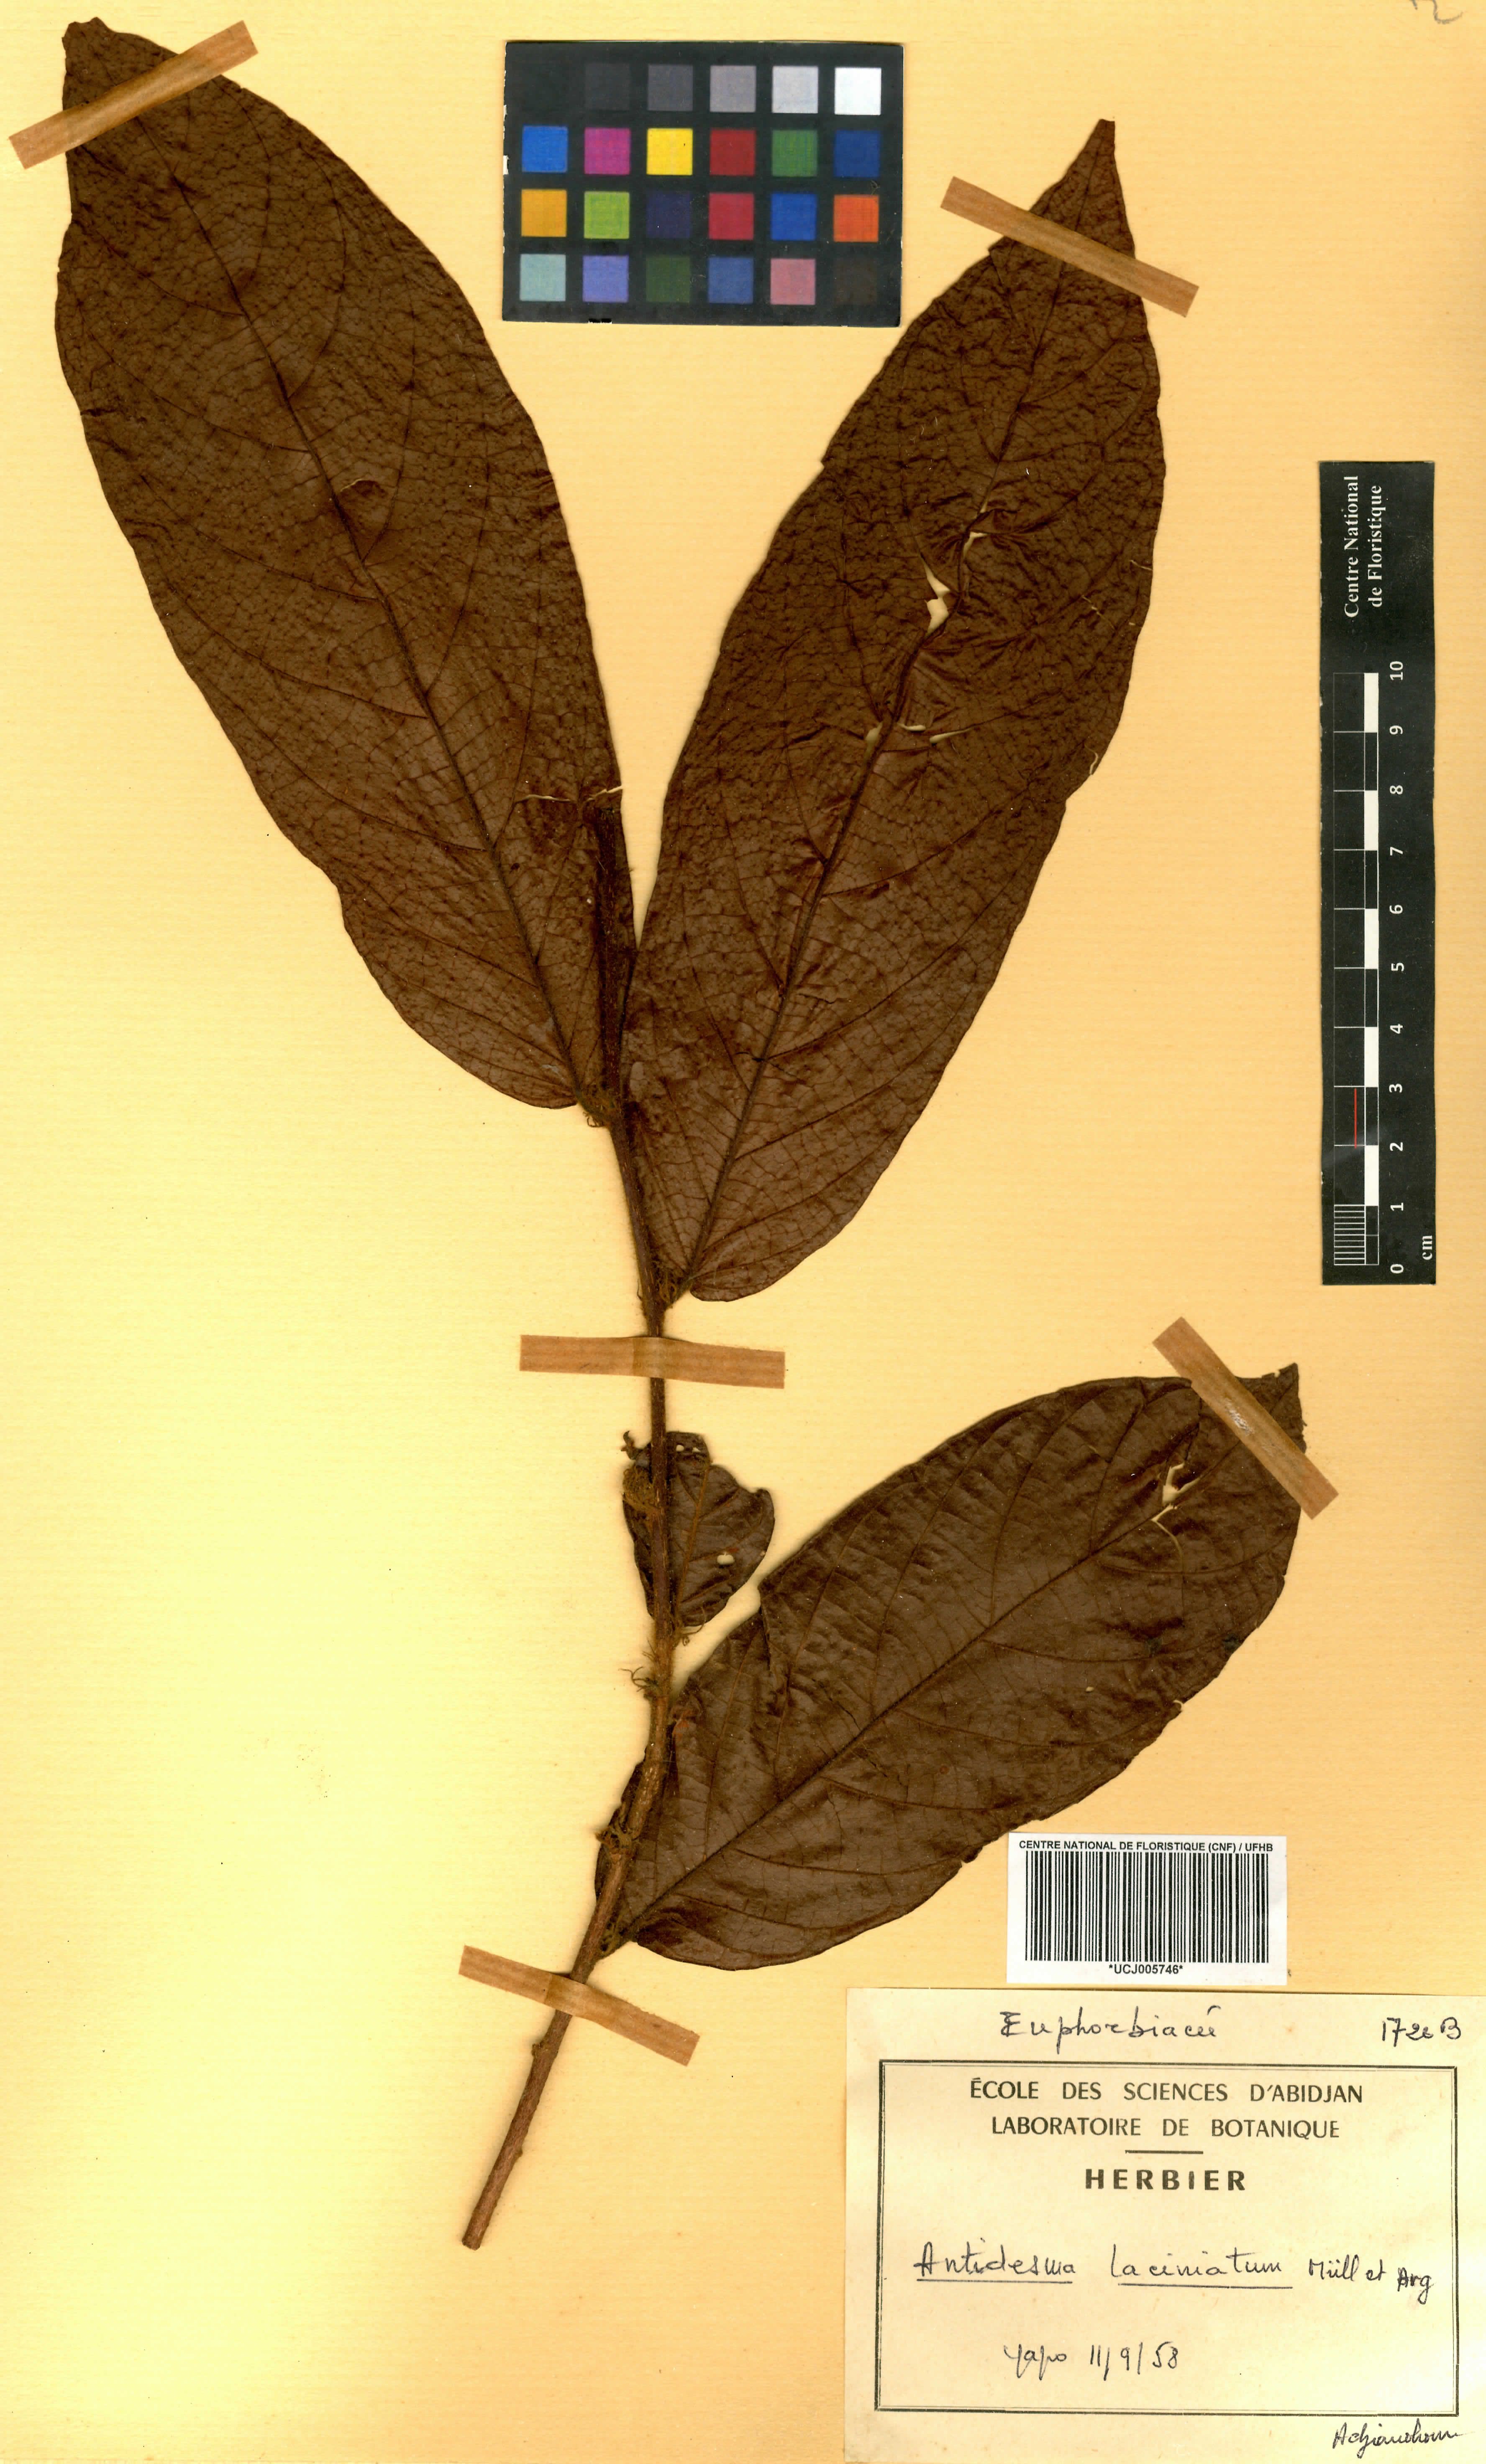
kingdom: Plantae
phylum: Tracheophyta
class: Magnoliopsida
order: Malpighiales
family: Phyllanthaceae
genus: Antidesma
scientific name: Antidesma laciniatum
